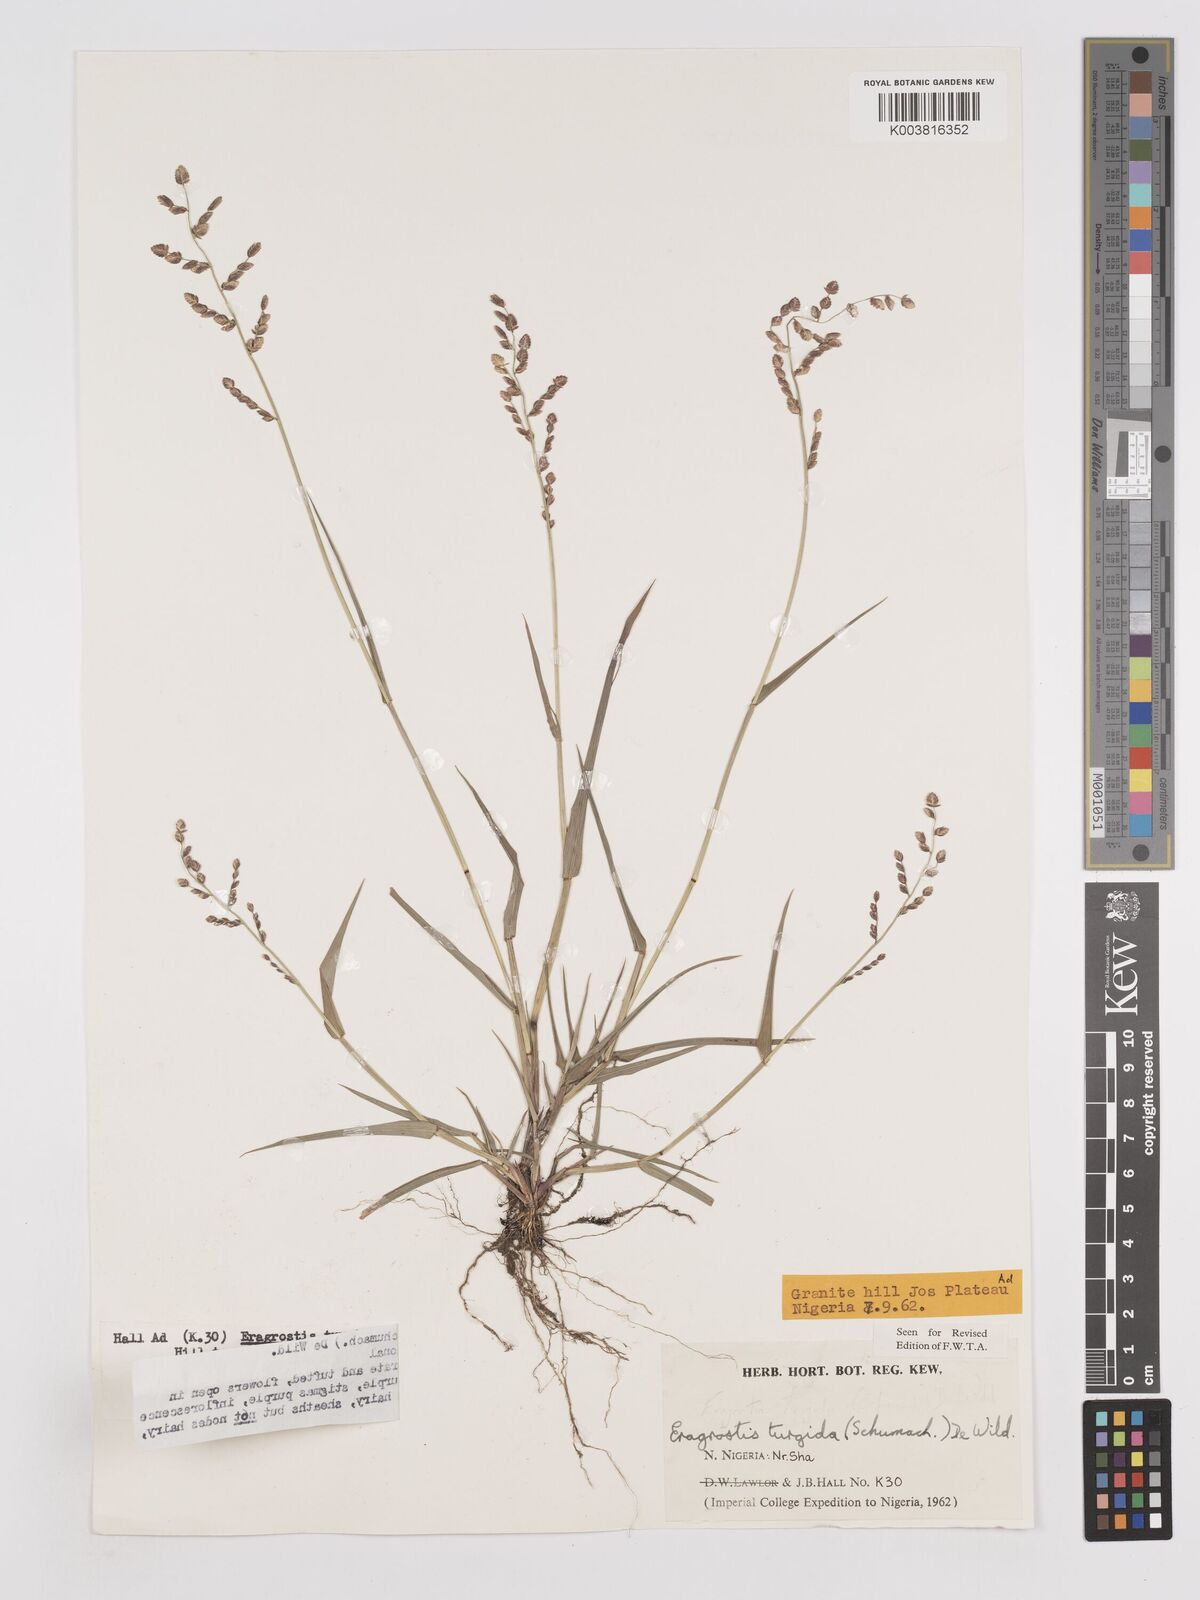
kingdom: Plantae
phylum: Tracheophyta
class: Liliopsida
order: Poales
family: Poaceae
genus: Eragrostis
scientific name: Eragrostis turgida
